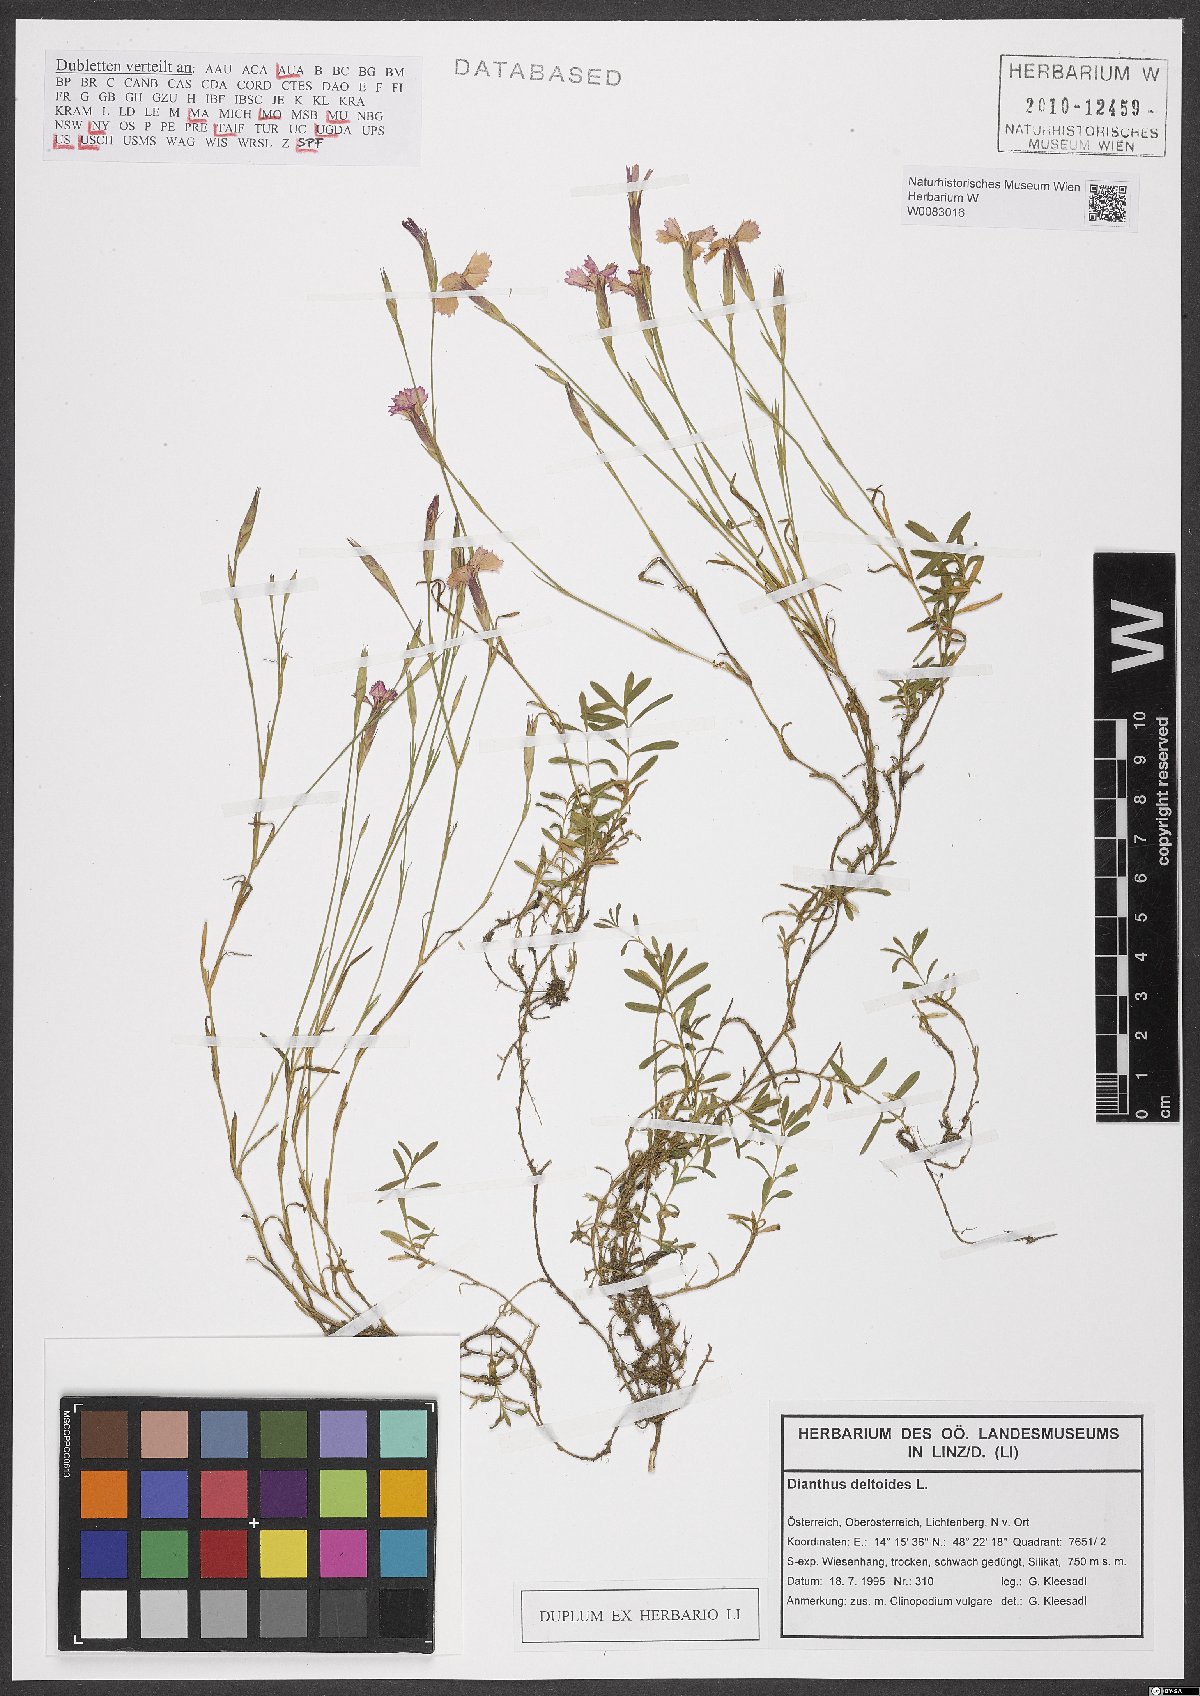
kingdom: Plantae
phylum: Tracheophyta
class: Magnoliopsida
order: Caryophyllales
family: Caryophyllaceae
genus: Dianthus
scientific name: Dianthus deltoides
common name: Maiden pink
